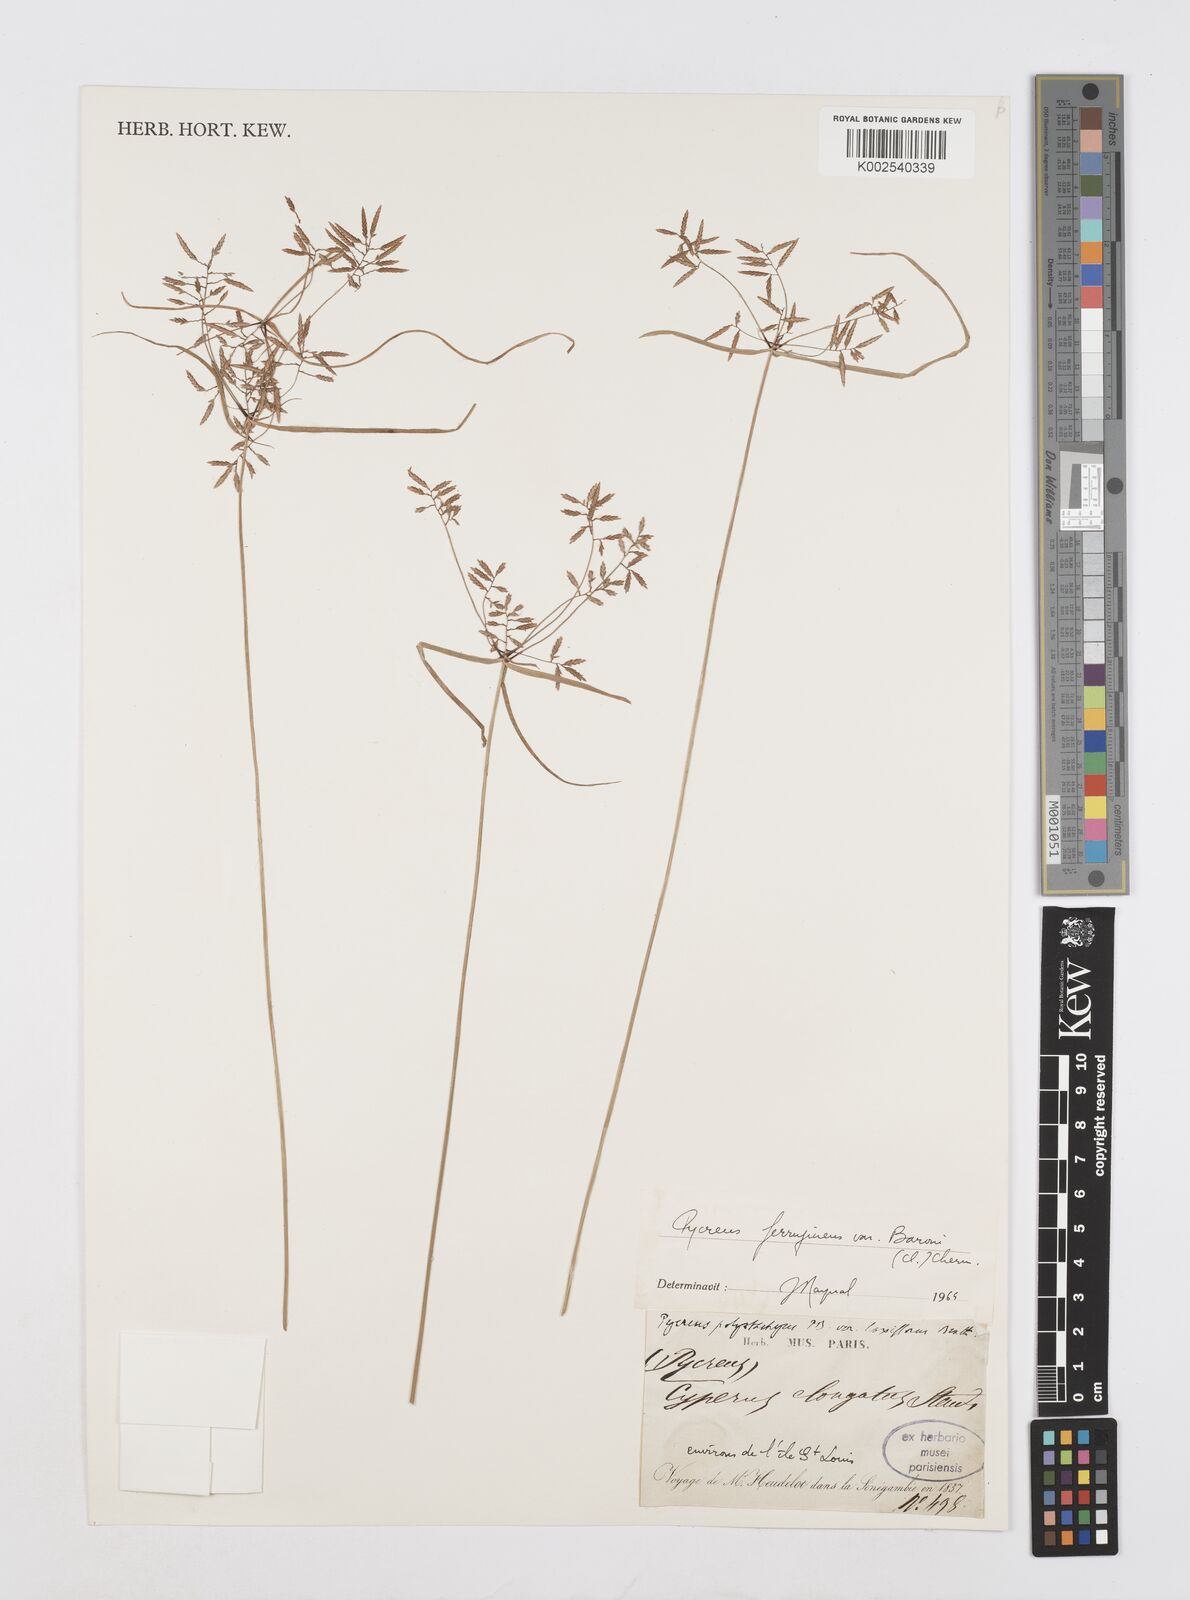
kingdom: Plantae
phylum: Tracheophyta
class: Liliopsida
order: Poales
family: Cyperaceae
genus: Cyperus
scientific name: Cyperus intactus
